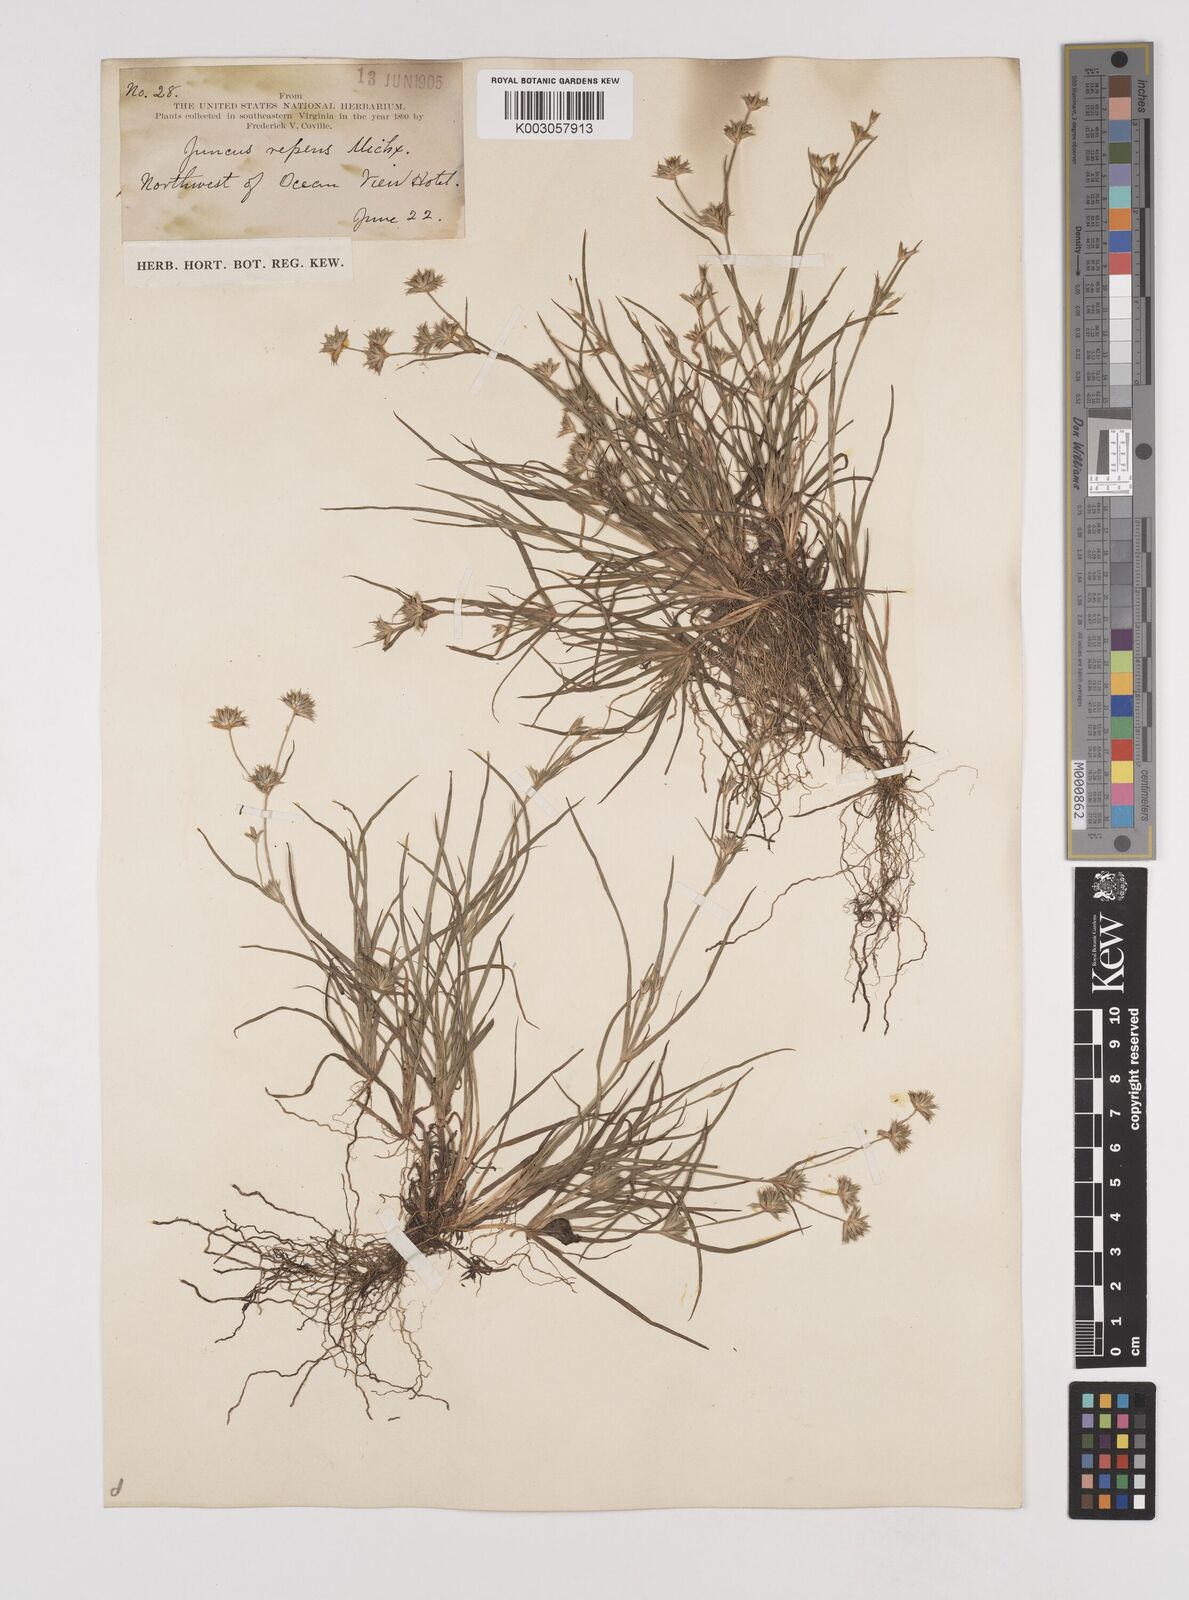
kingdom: Plantae
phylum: Tracheophyta
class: Liliopsida
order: Poales
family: Juncaceae
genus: Juncus
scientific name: Juncus repens
